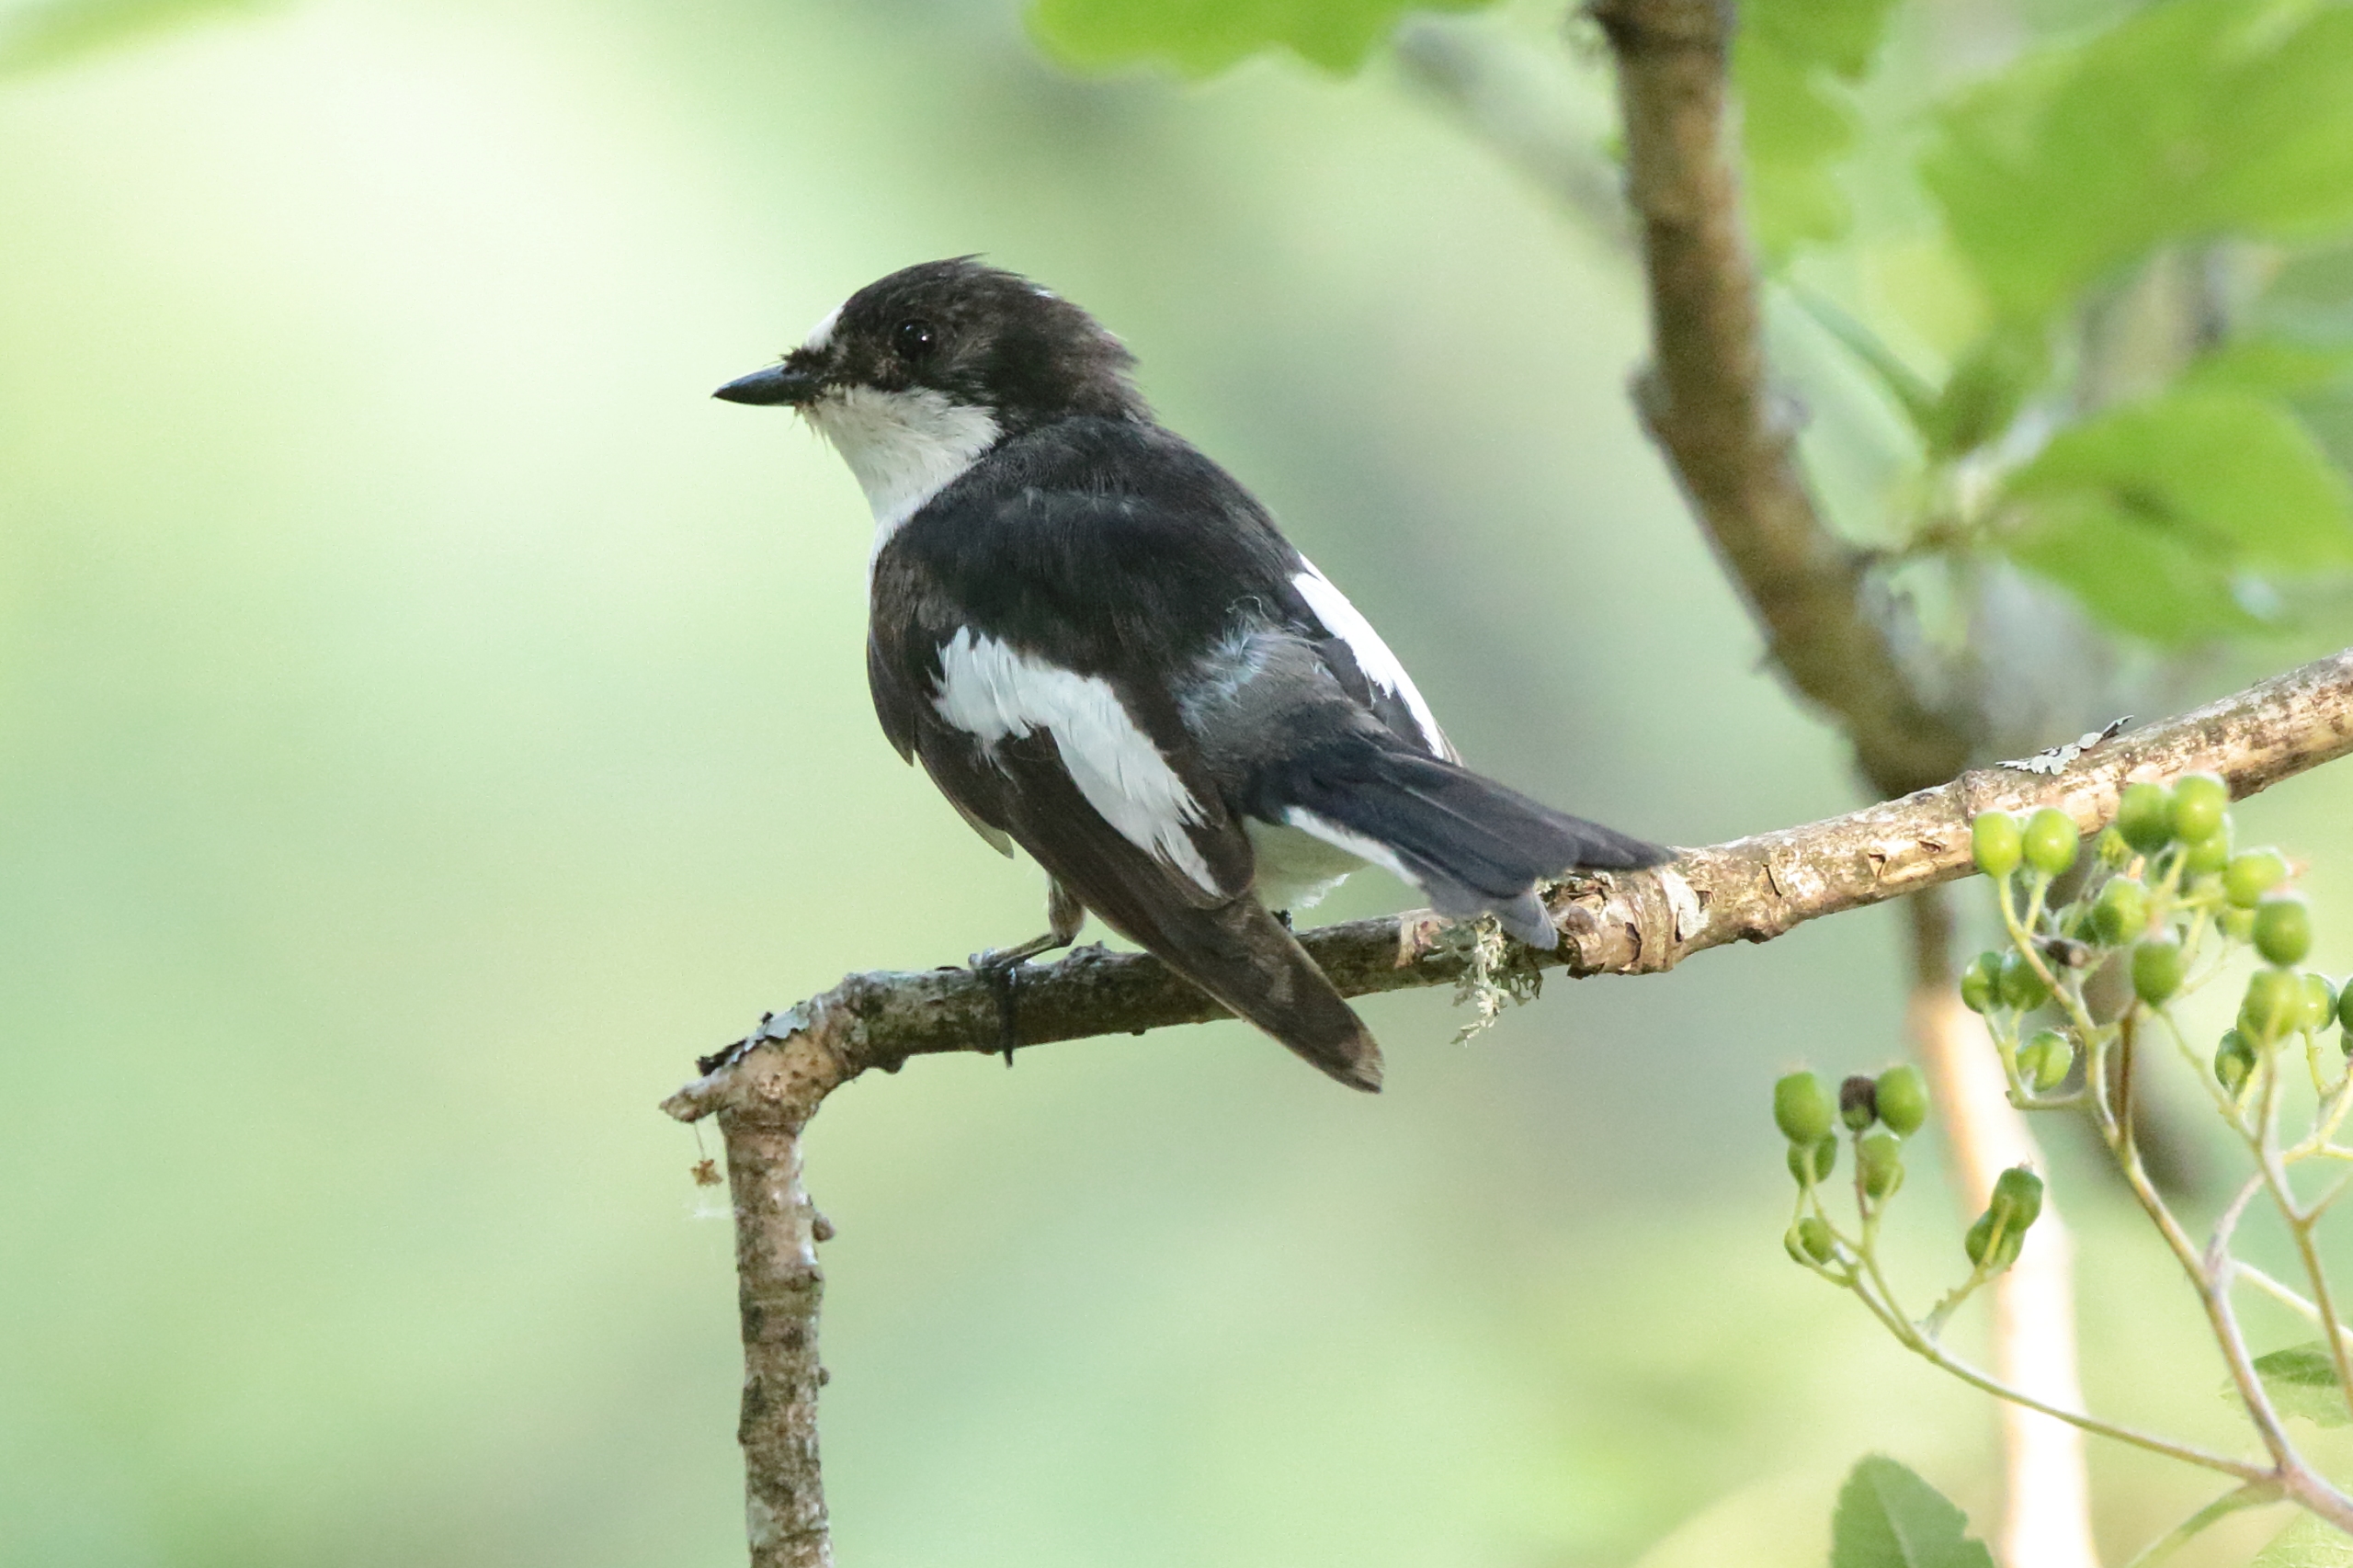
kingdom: Animalia
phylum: Chordata
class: Aves
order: Passeriformes
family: Muscicapidae
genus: Ficedula
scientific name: Ficedula hypoleuca
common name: Broget fluesnapper
